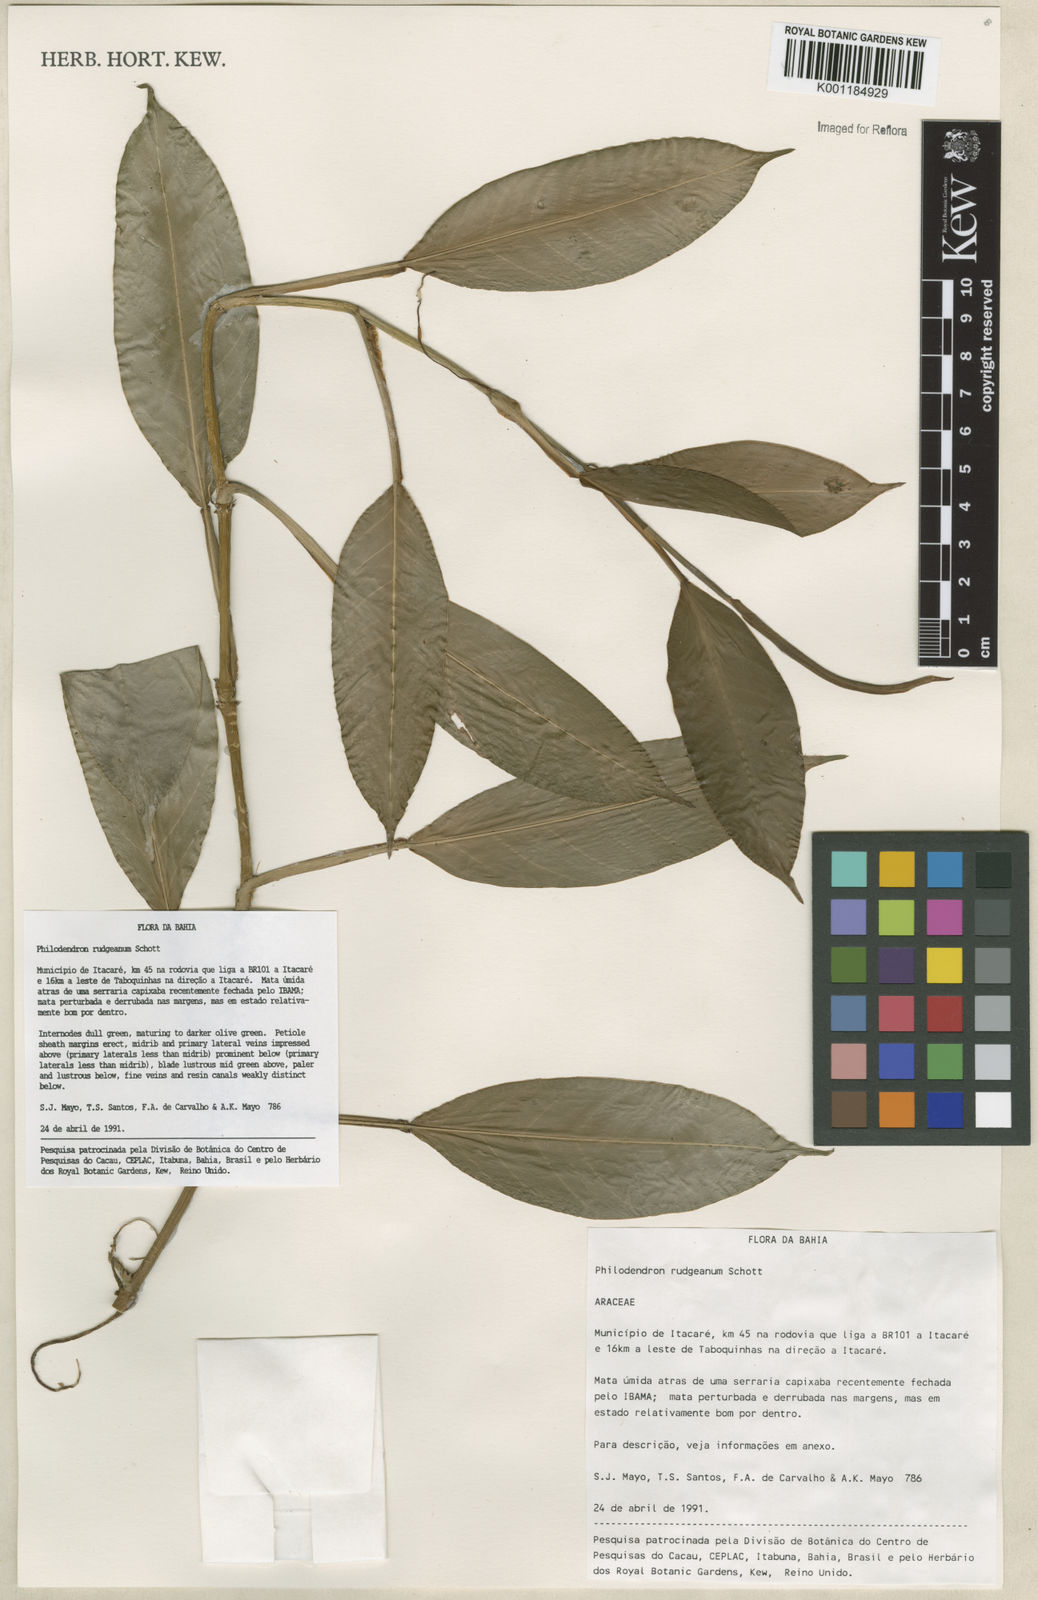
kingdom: Plantae
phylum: Tracheophyta
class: Liliopsida
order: Alismatales
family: Araceae
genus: Philodendron
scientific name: Philodendron rudgeanum
